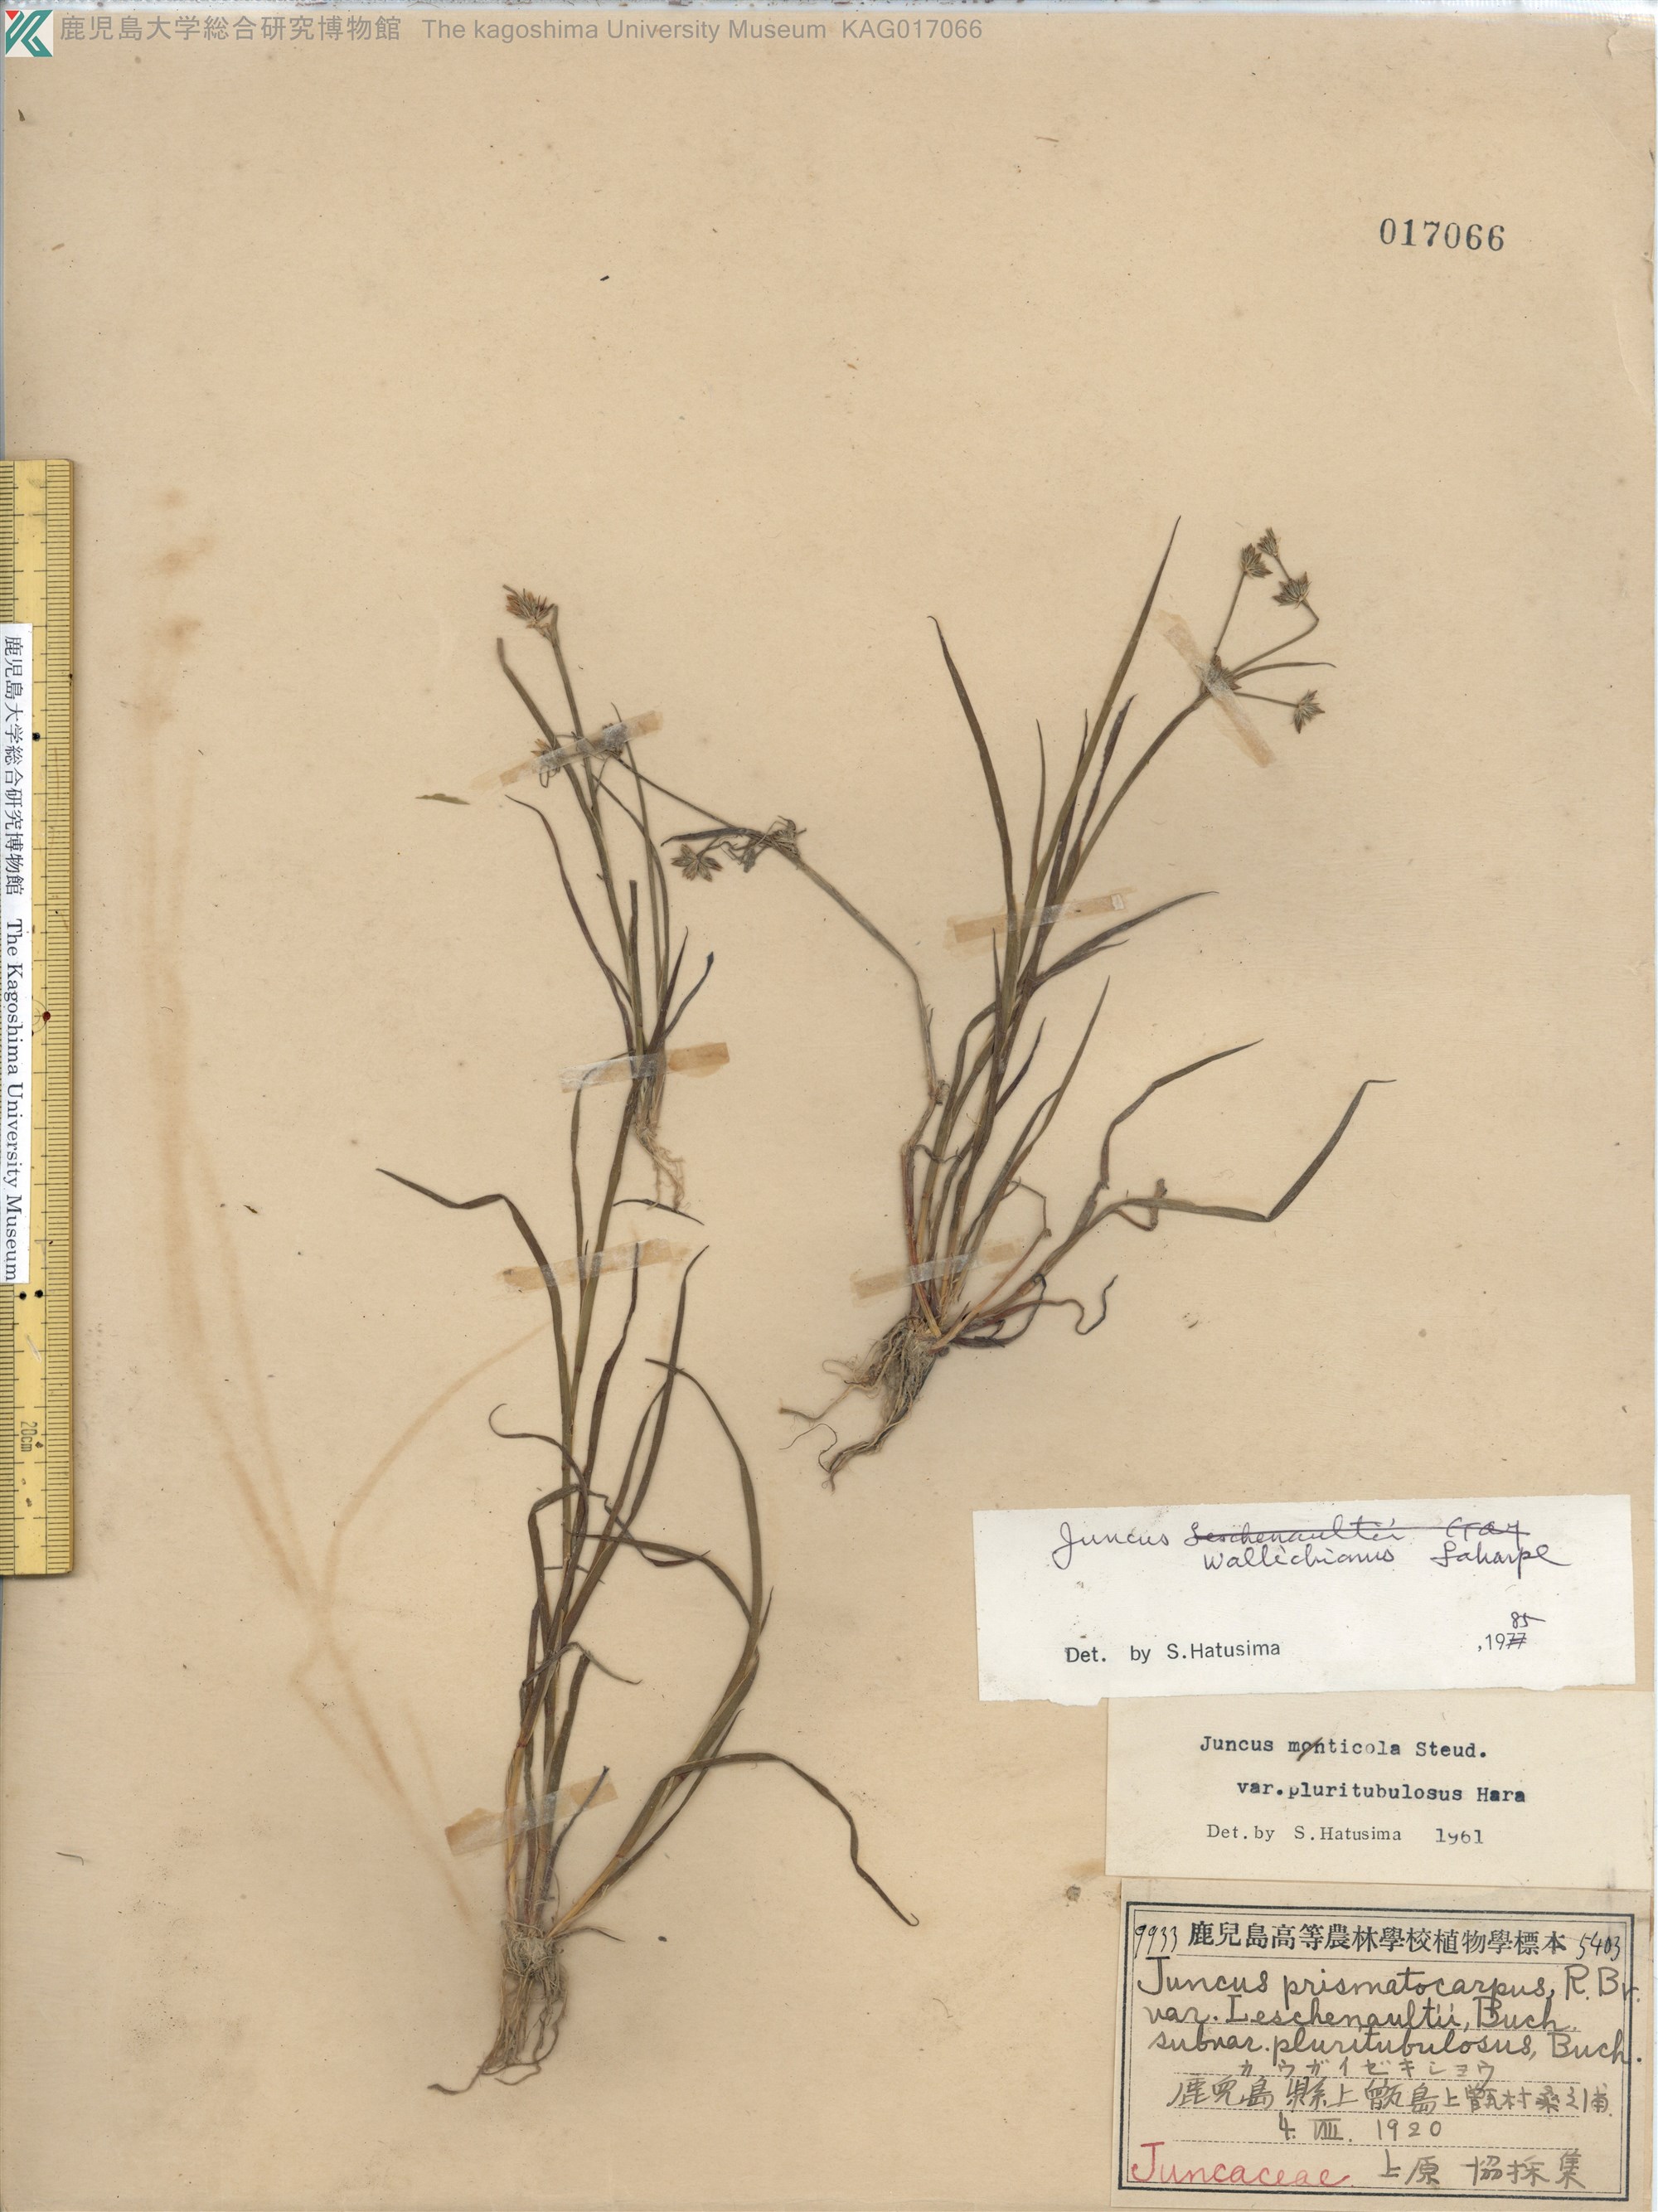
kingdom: Plantae
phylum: Tracheophyta
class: Liliopsida
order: Poales
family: Juncaceae
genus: Juncus
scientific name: Juncus prismatocarpus
